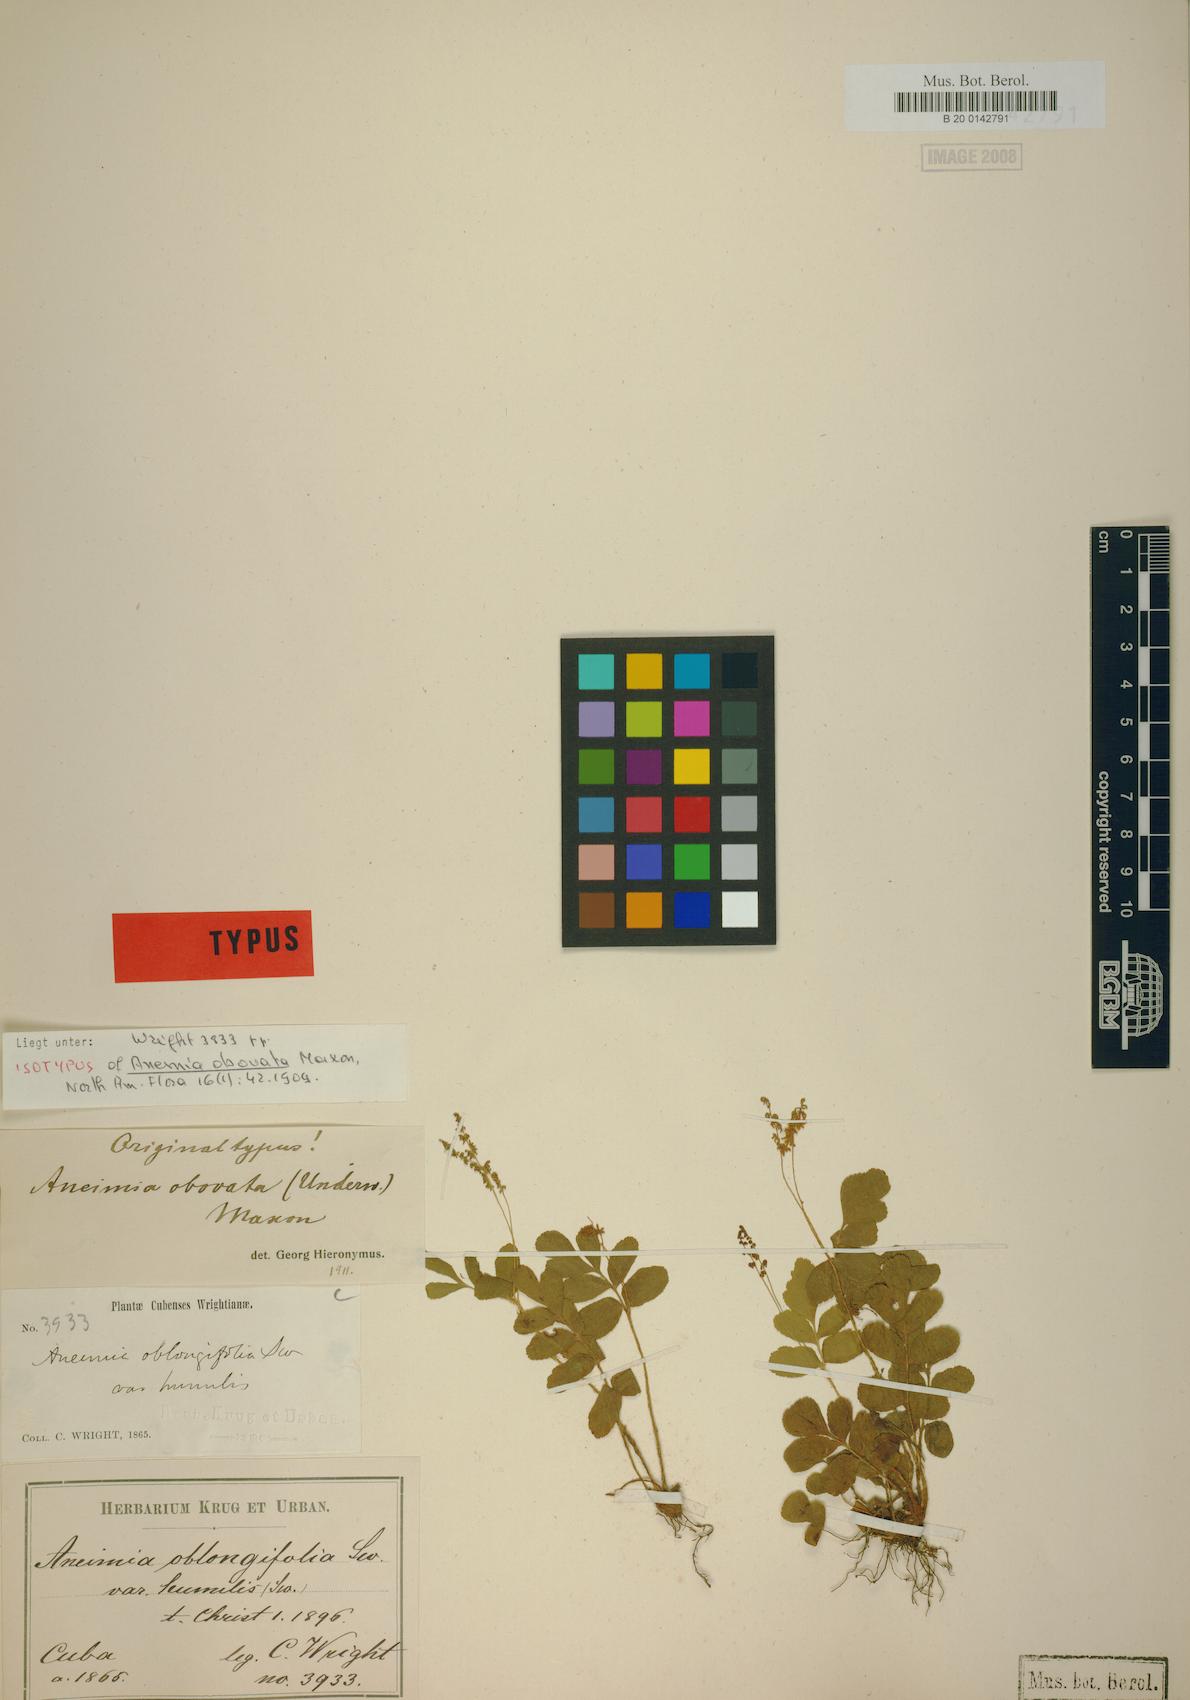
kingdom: Plantae
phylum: Tracheophyta
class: Polypodiopsida
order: Schizaeales
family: Anemiaceae
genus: Anemia
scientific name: Anemia obovata
